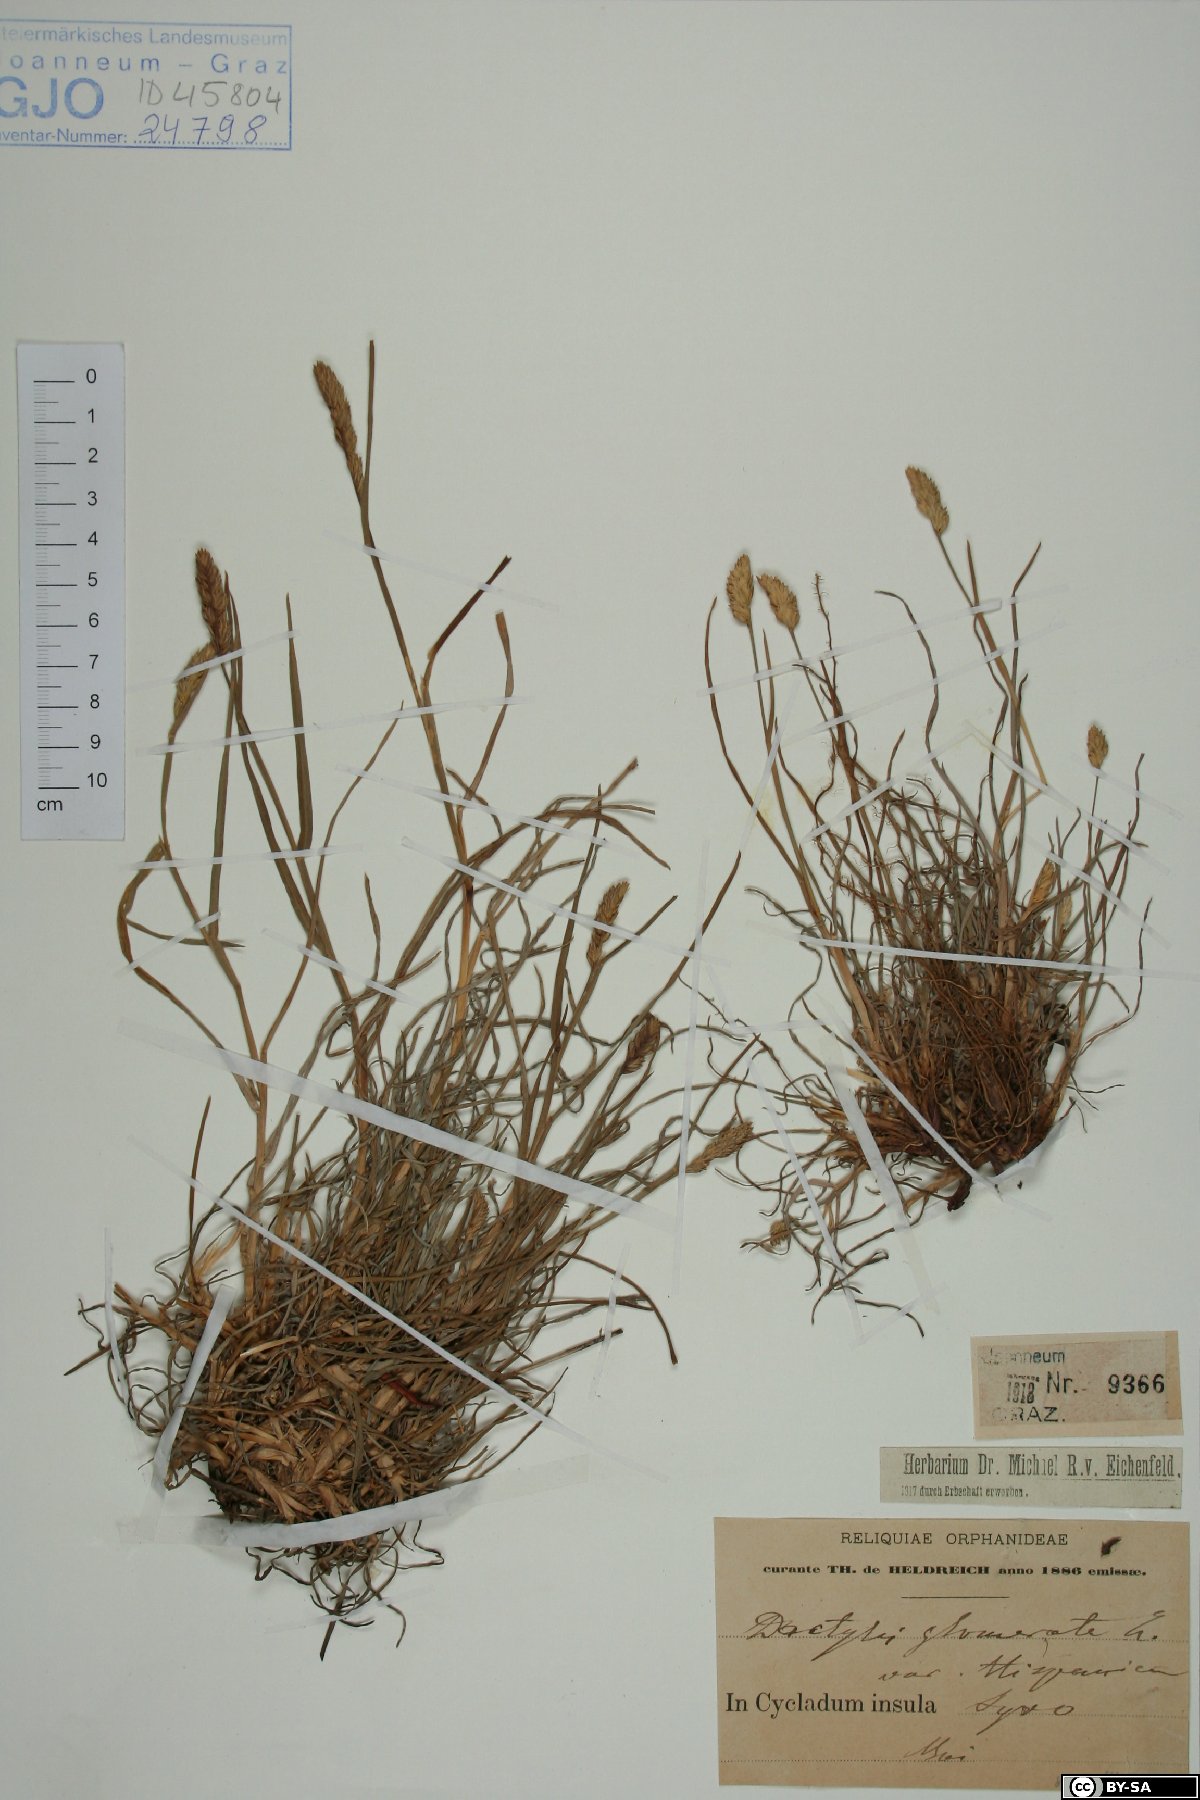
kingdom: Plantae
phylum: Tracheophyta
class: Liliopsida
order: Poales
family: Poaceae
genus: Dactylis
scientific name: Dactylis glomerata
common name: Orchardgrass
